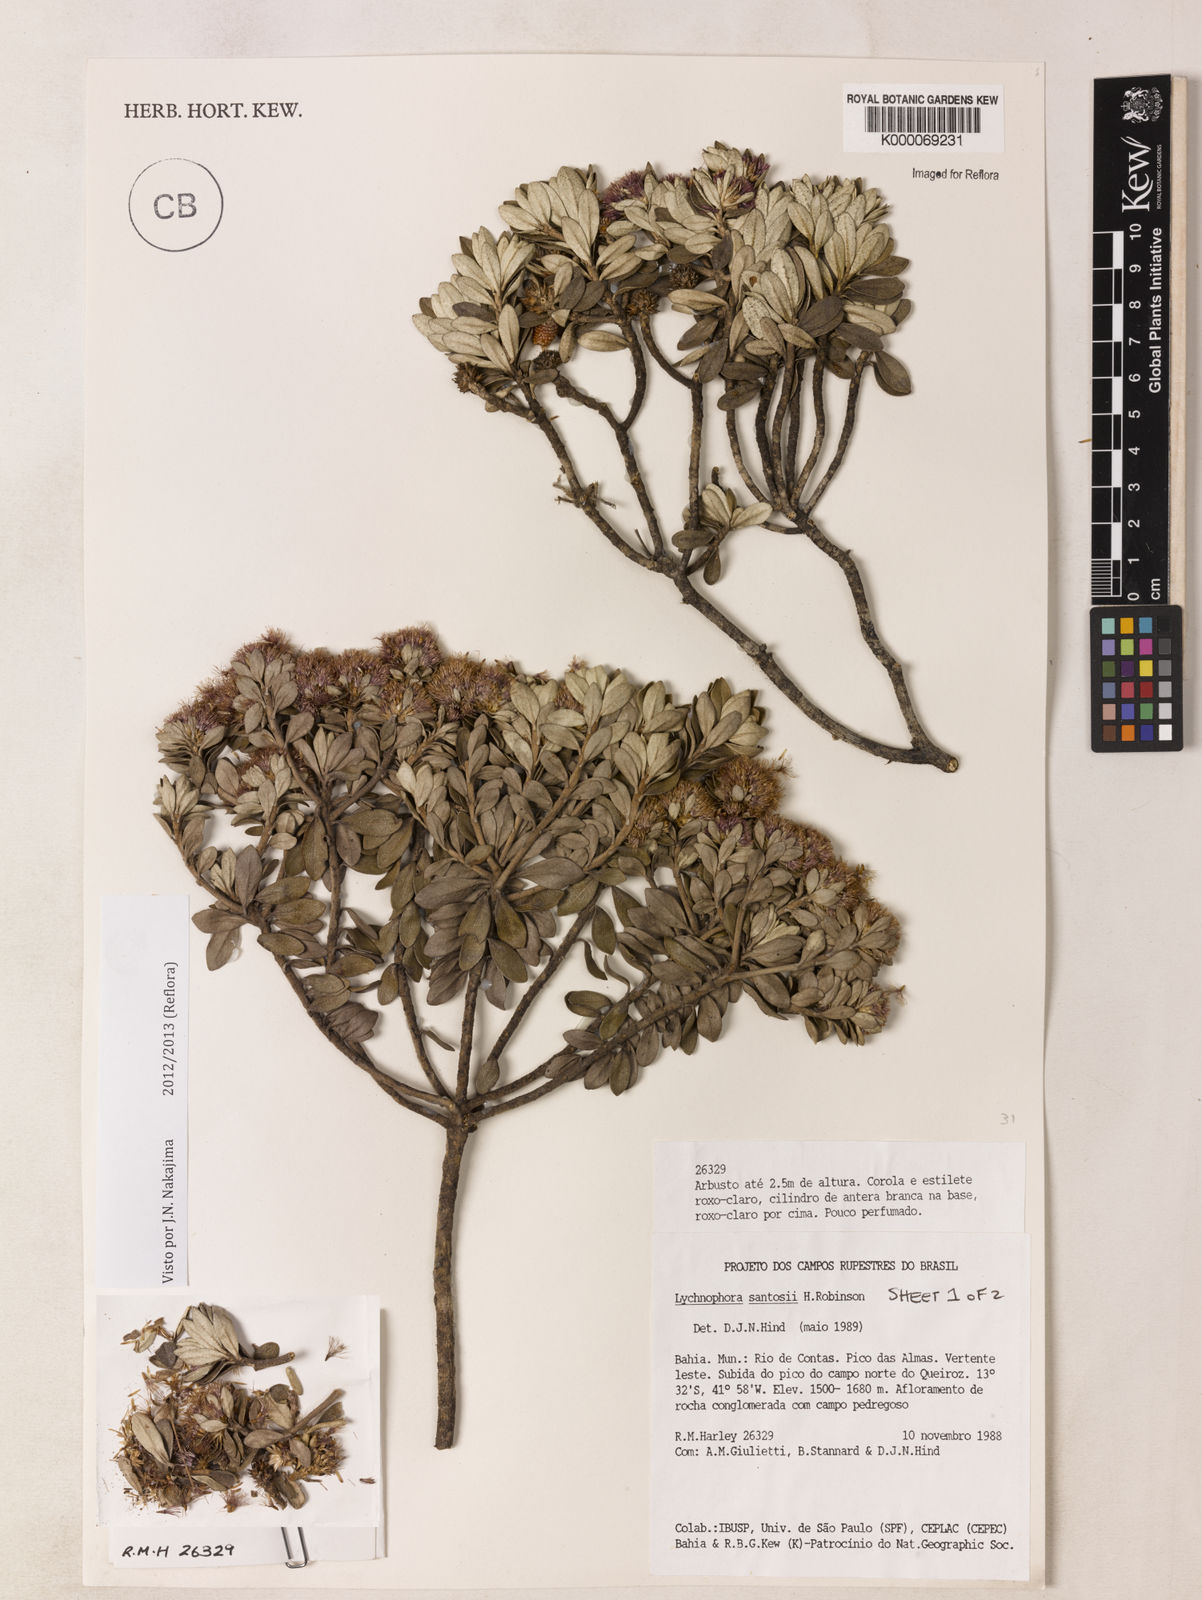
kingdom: Plantae
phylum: Tracheophyta
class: Magnoliopsida
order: Asterales
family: Asteraceae
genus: Lychnophorella
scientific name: Lychnophorella santosii
